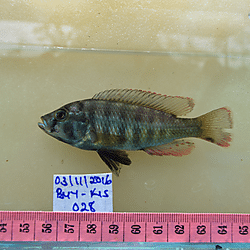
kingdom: Animalia
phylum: Chordata
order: Perciformes
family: Cichlidae
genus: Pundamilia
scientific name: Pundamilia
